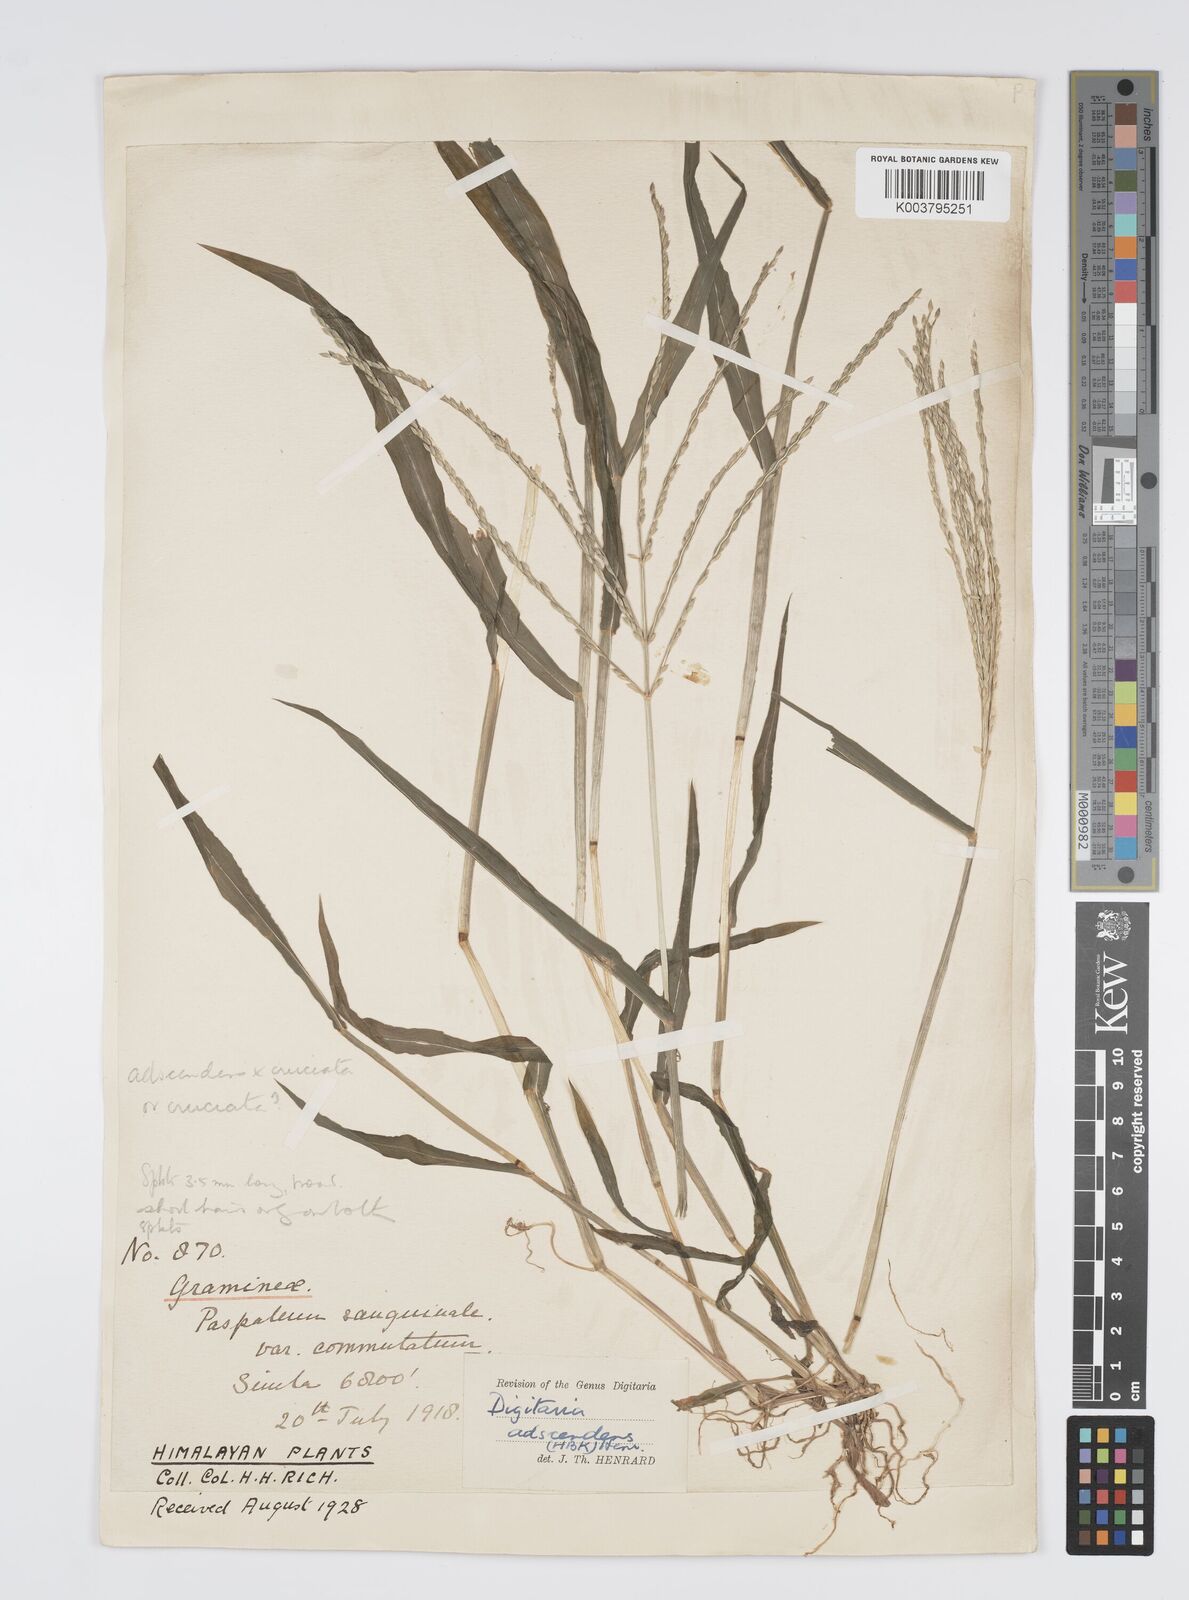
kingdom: Plantae
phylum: Tracheophyta
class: Liliopsida
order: Poales
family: Poaceae
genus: Digitaria
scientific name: Digitaria ciliaris
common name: Tropical finger-grass
